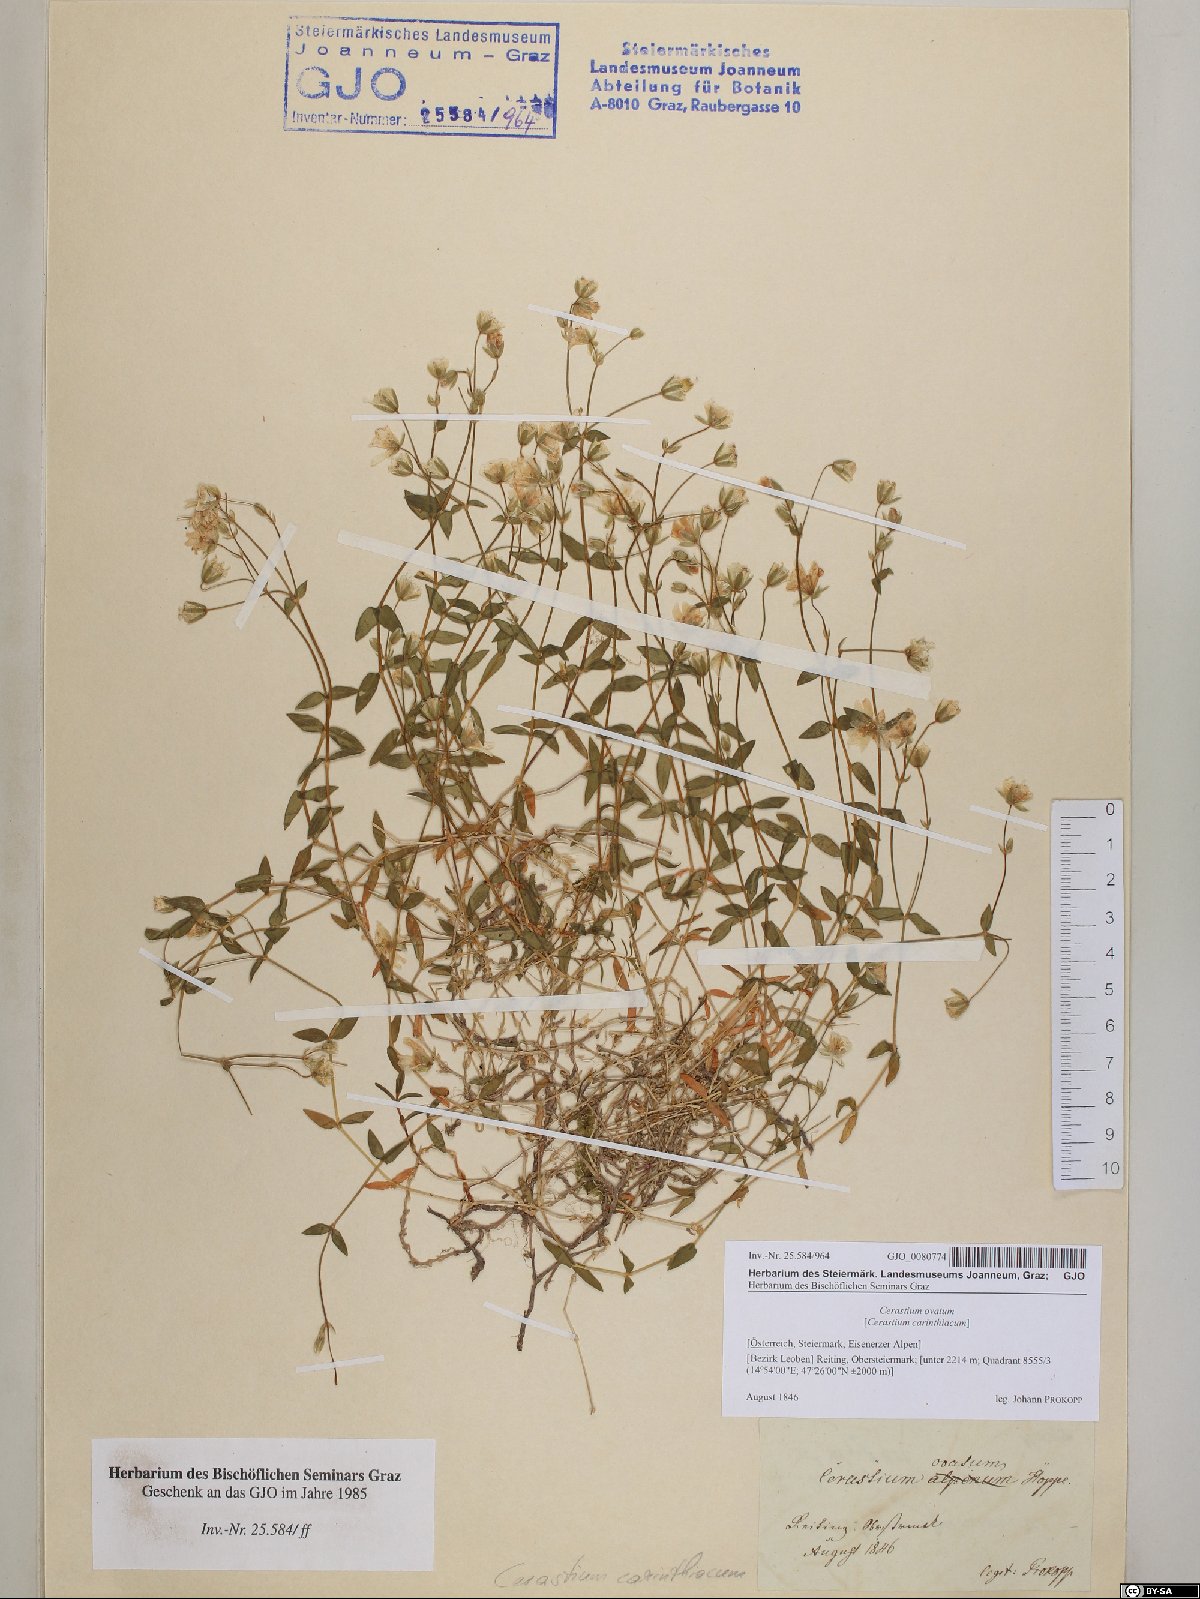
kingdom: Plantae
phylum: Tracheophyta
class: Magnoliopsida
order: Caryophyllales
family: Caryophyllaceae
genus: Cerastium
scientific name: Cerastium arvense
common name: Field mouse-ear
